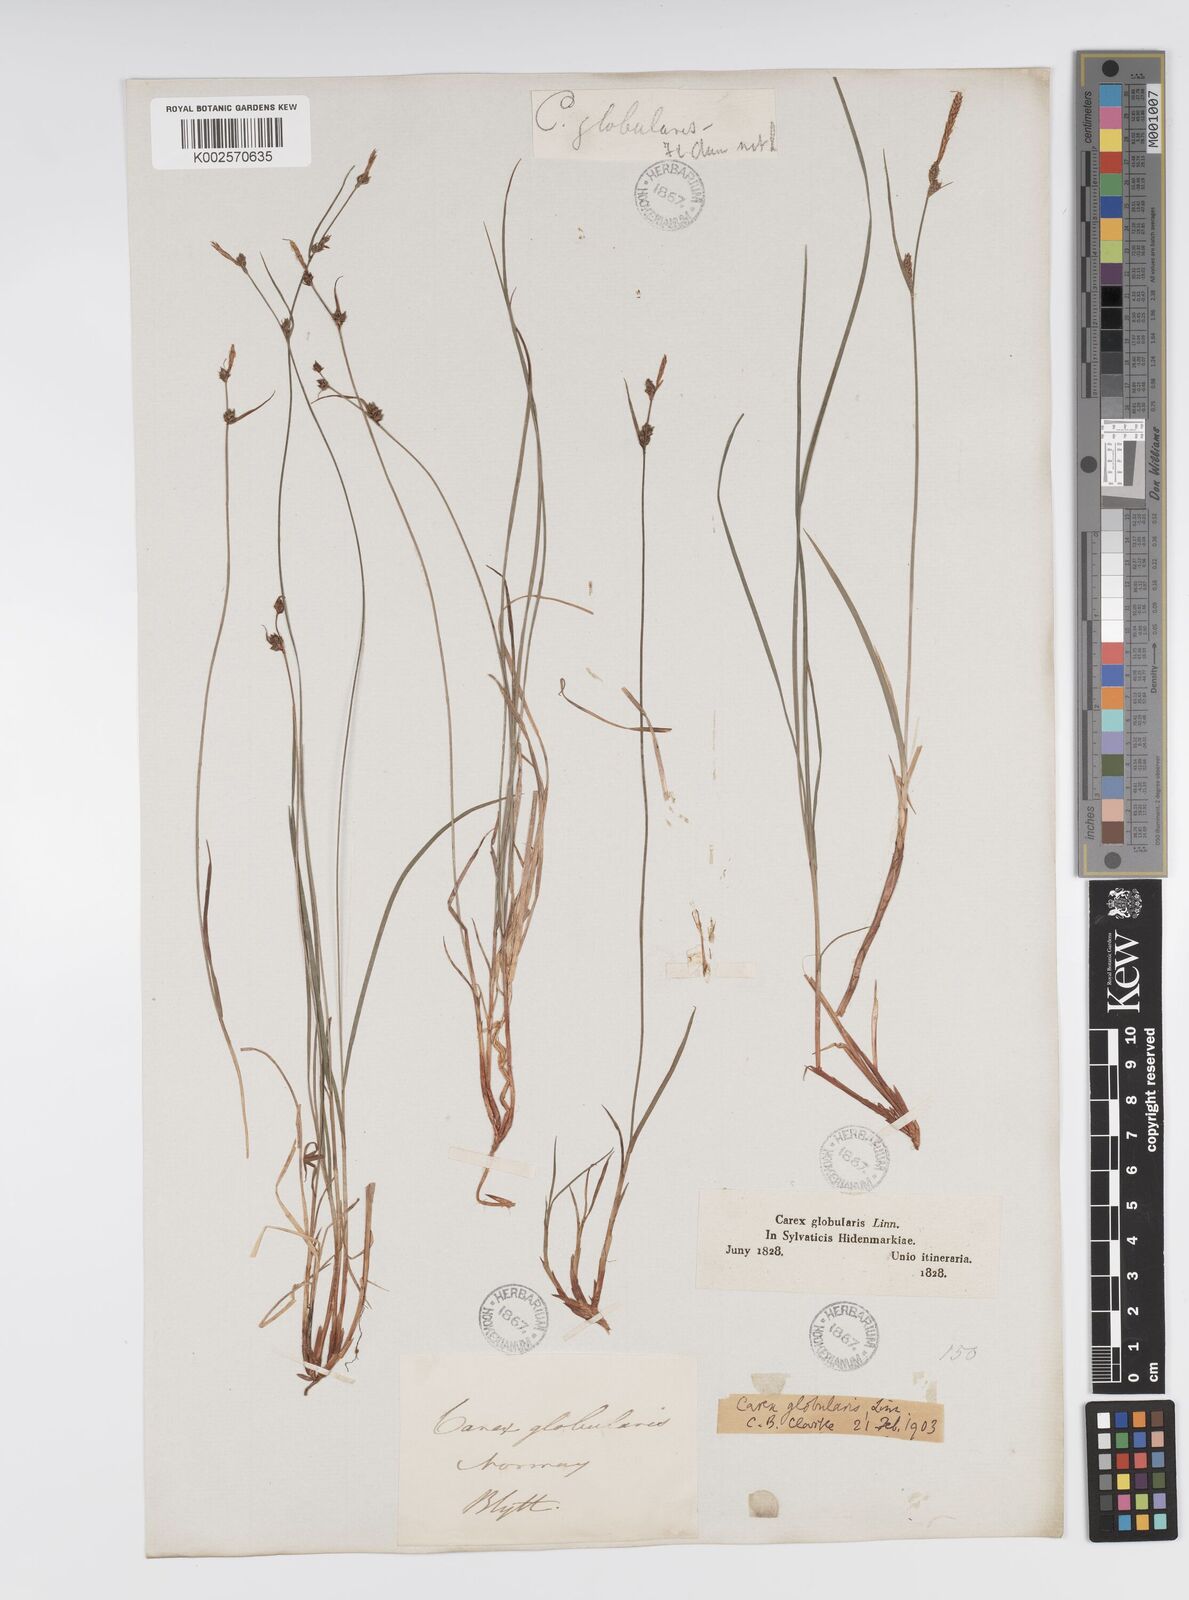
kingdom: Plantae
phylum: Tracheophyta
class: Liliopsida
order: Poales
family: Cyperaceae
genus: Carex
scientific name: Carex globularis
